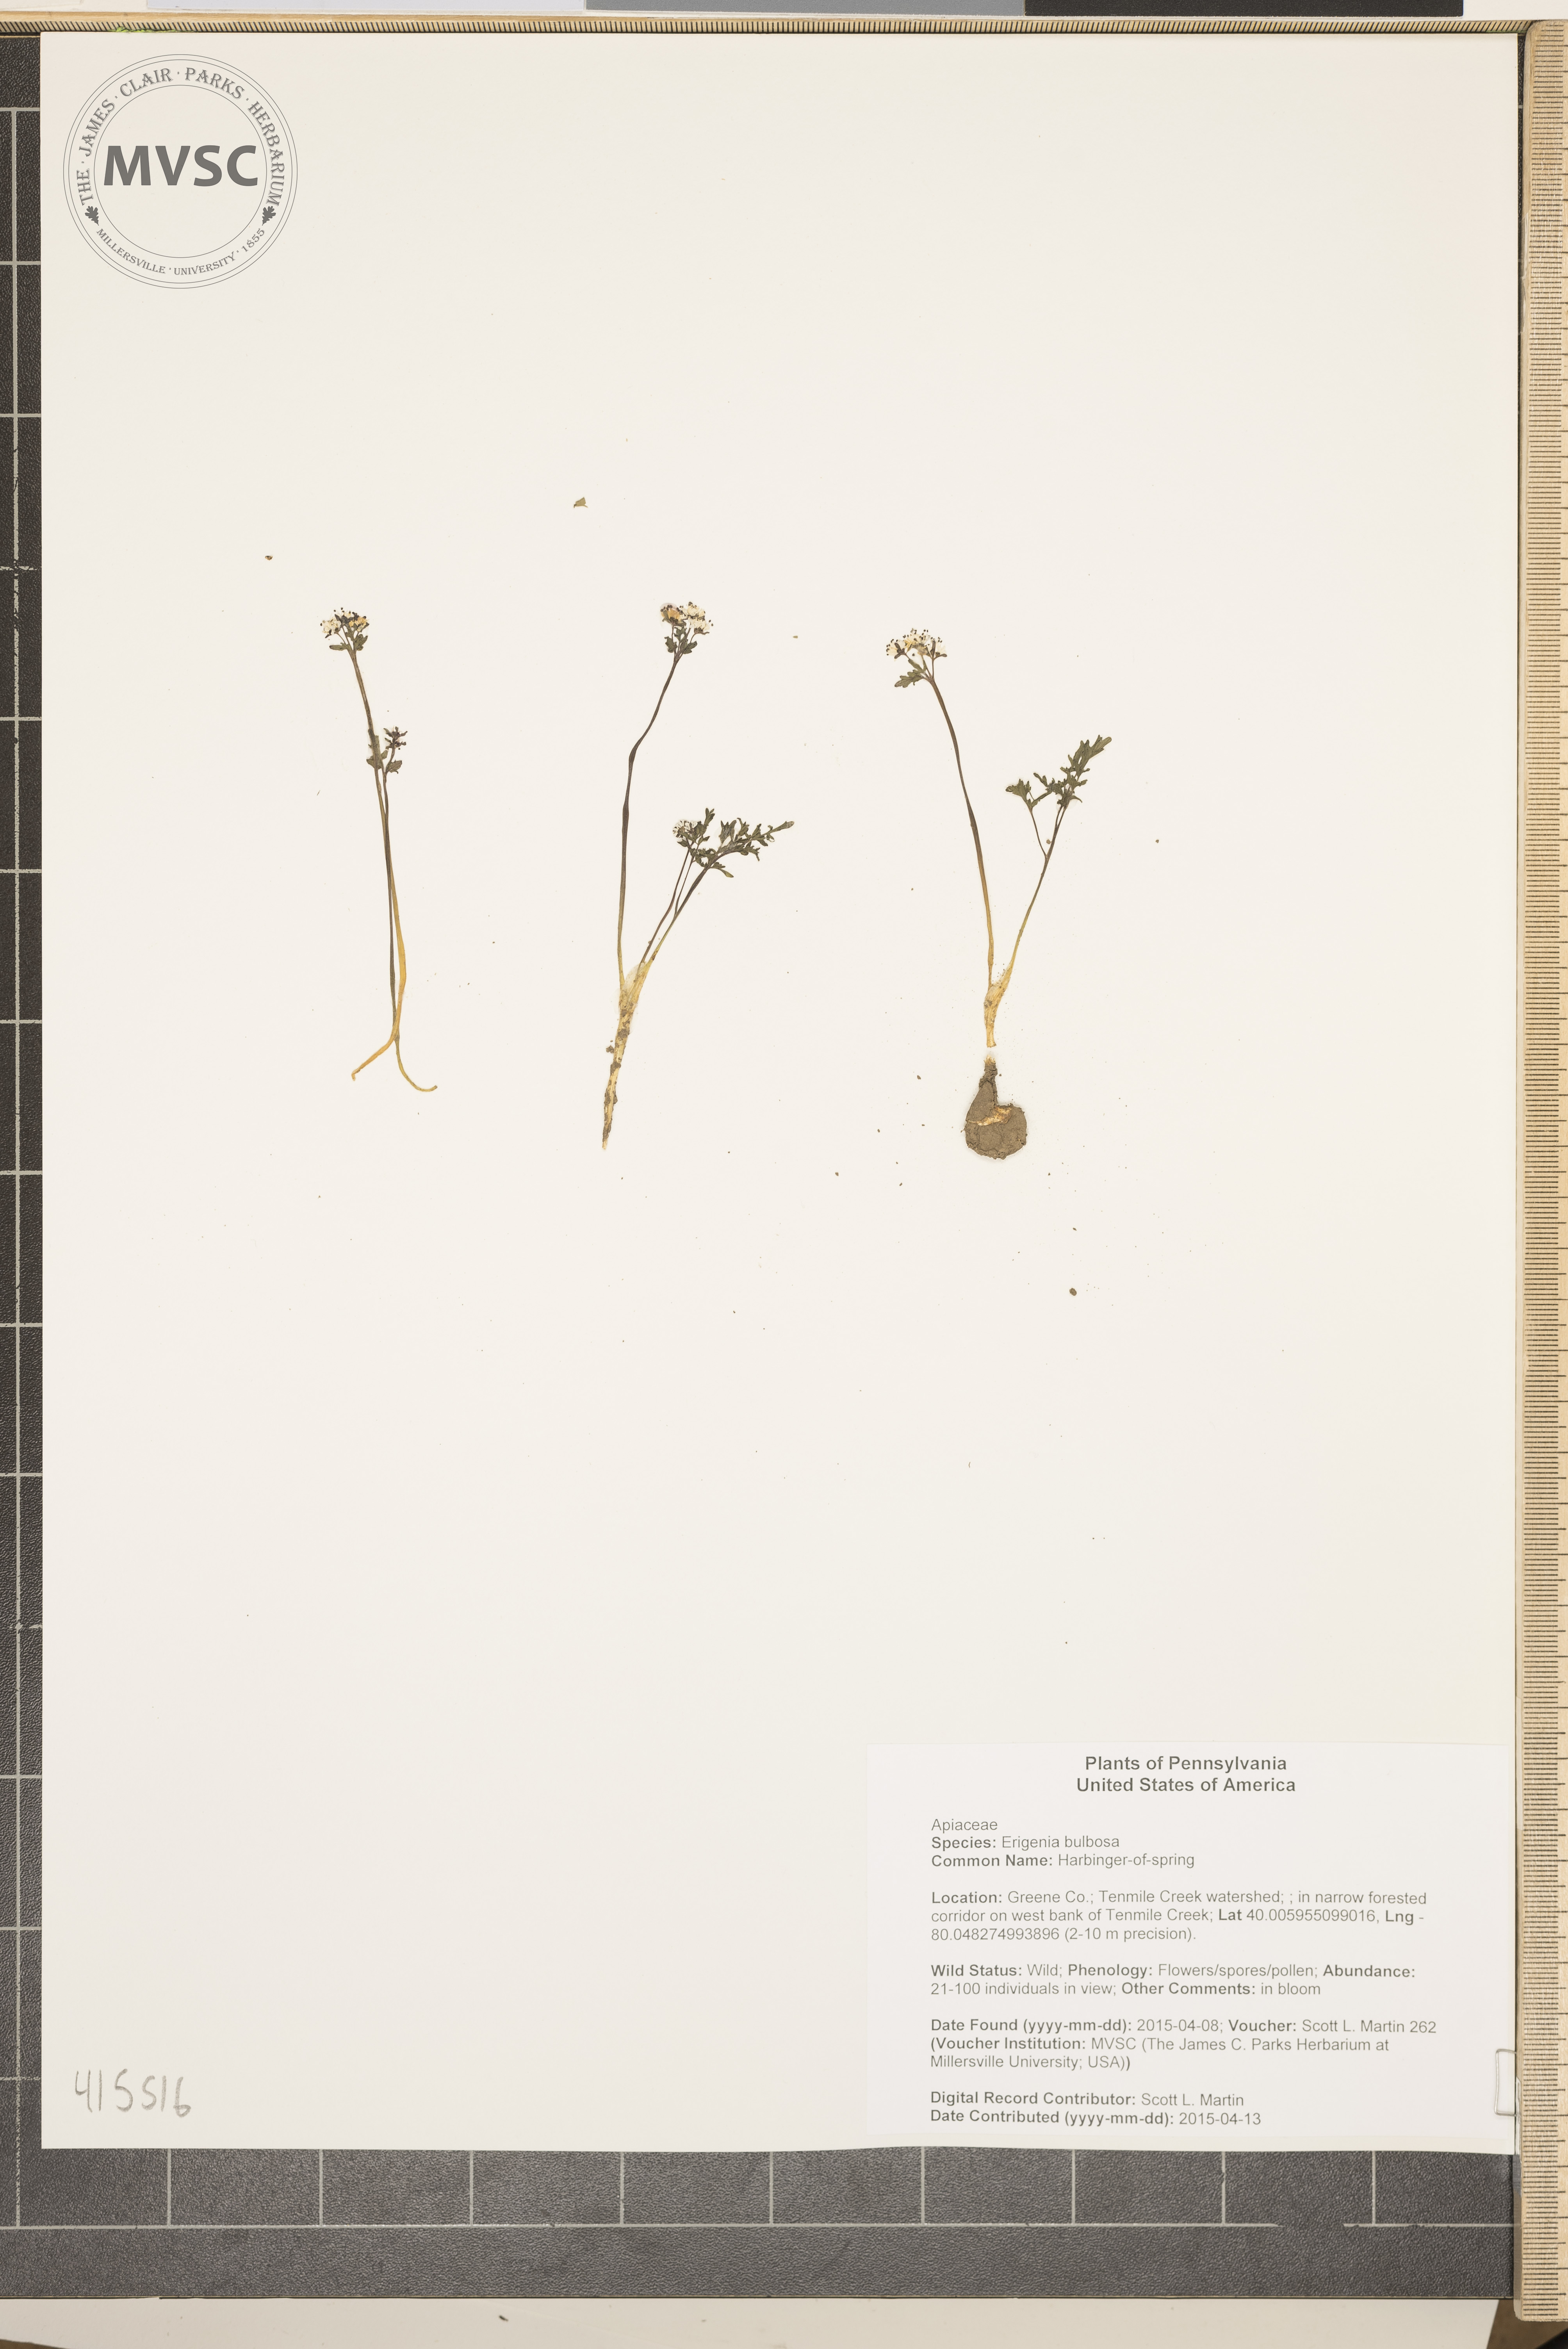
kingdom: Plantae
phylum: Tracheophyta
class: Magnoliopsida
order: Apiales
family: Apiaceae
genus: Erigenia
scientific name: Erigenia bulbosa
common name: Harbinger-of-spring
